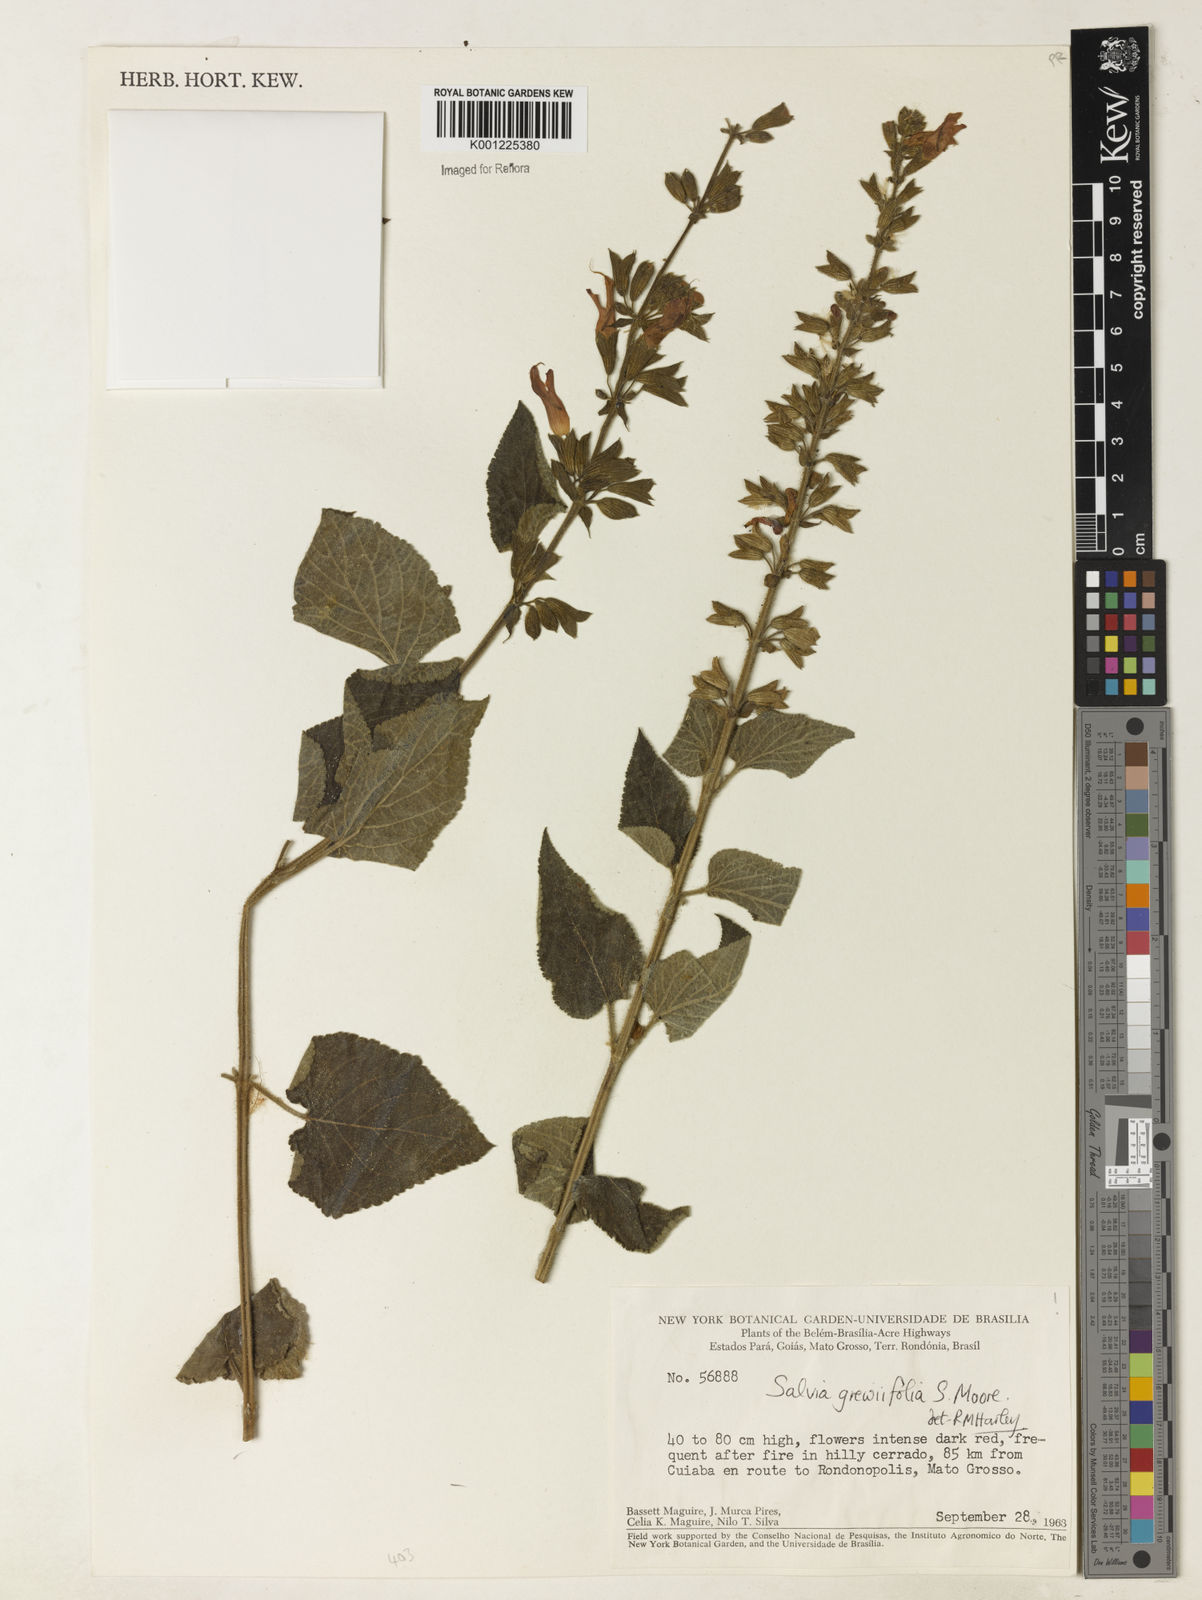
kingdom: Plantae
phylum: Tracheophyta
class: Magnoliopsida
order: Lamiales
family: Lamiaceae
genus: Salvia
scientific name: Salvia grewiifolia
